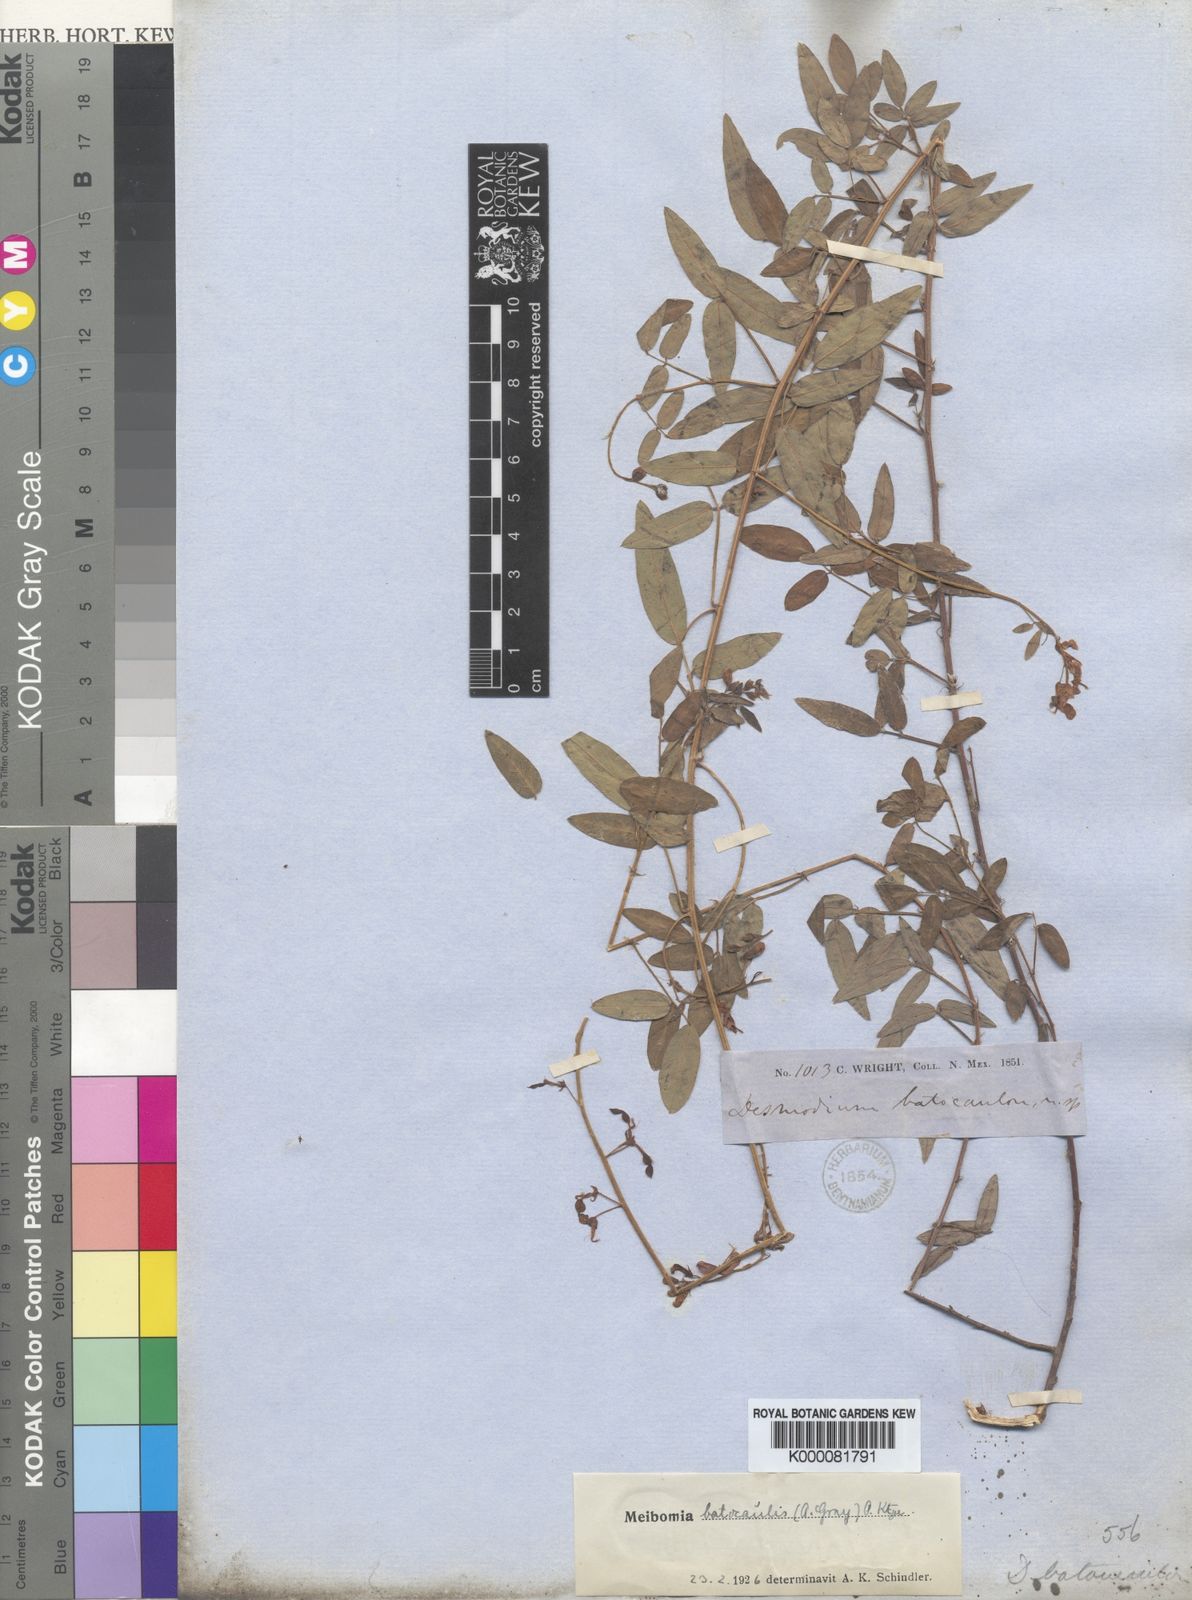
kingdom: Plantae
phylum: Tracheophyta
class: Magnoliopsida
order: Fabales
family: Fabaceae
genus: Desmodium
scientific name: Desmodium batocaulon
